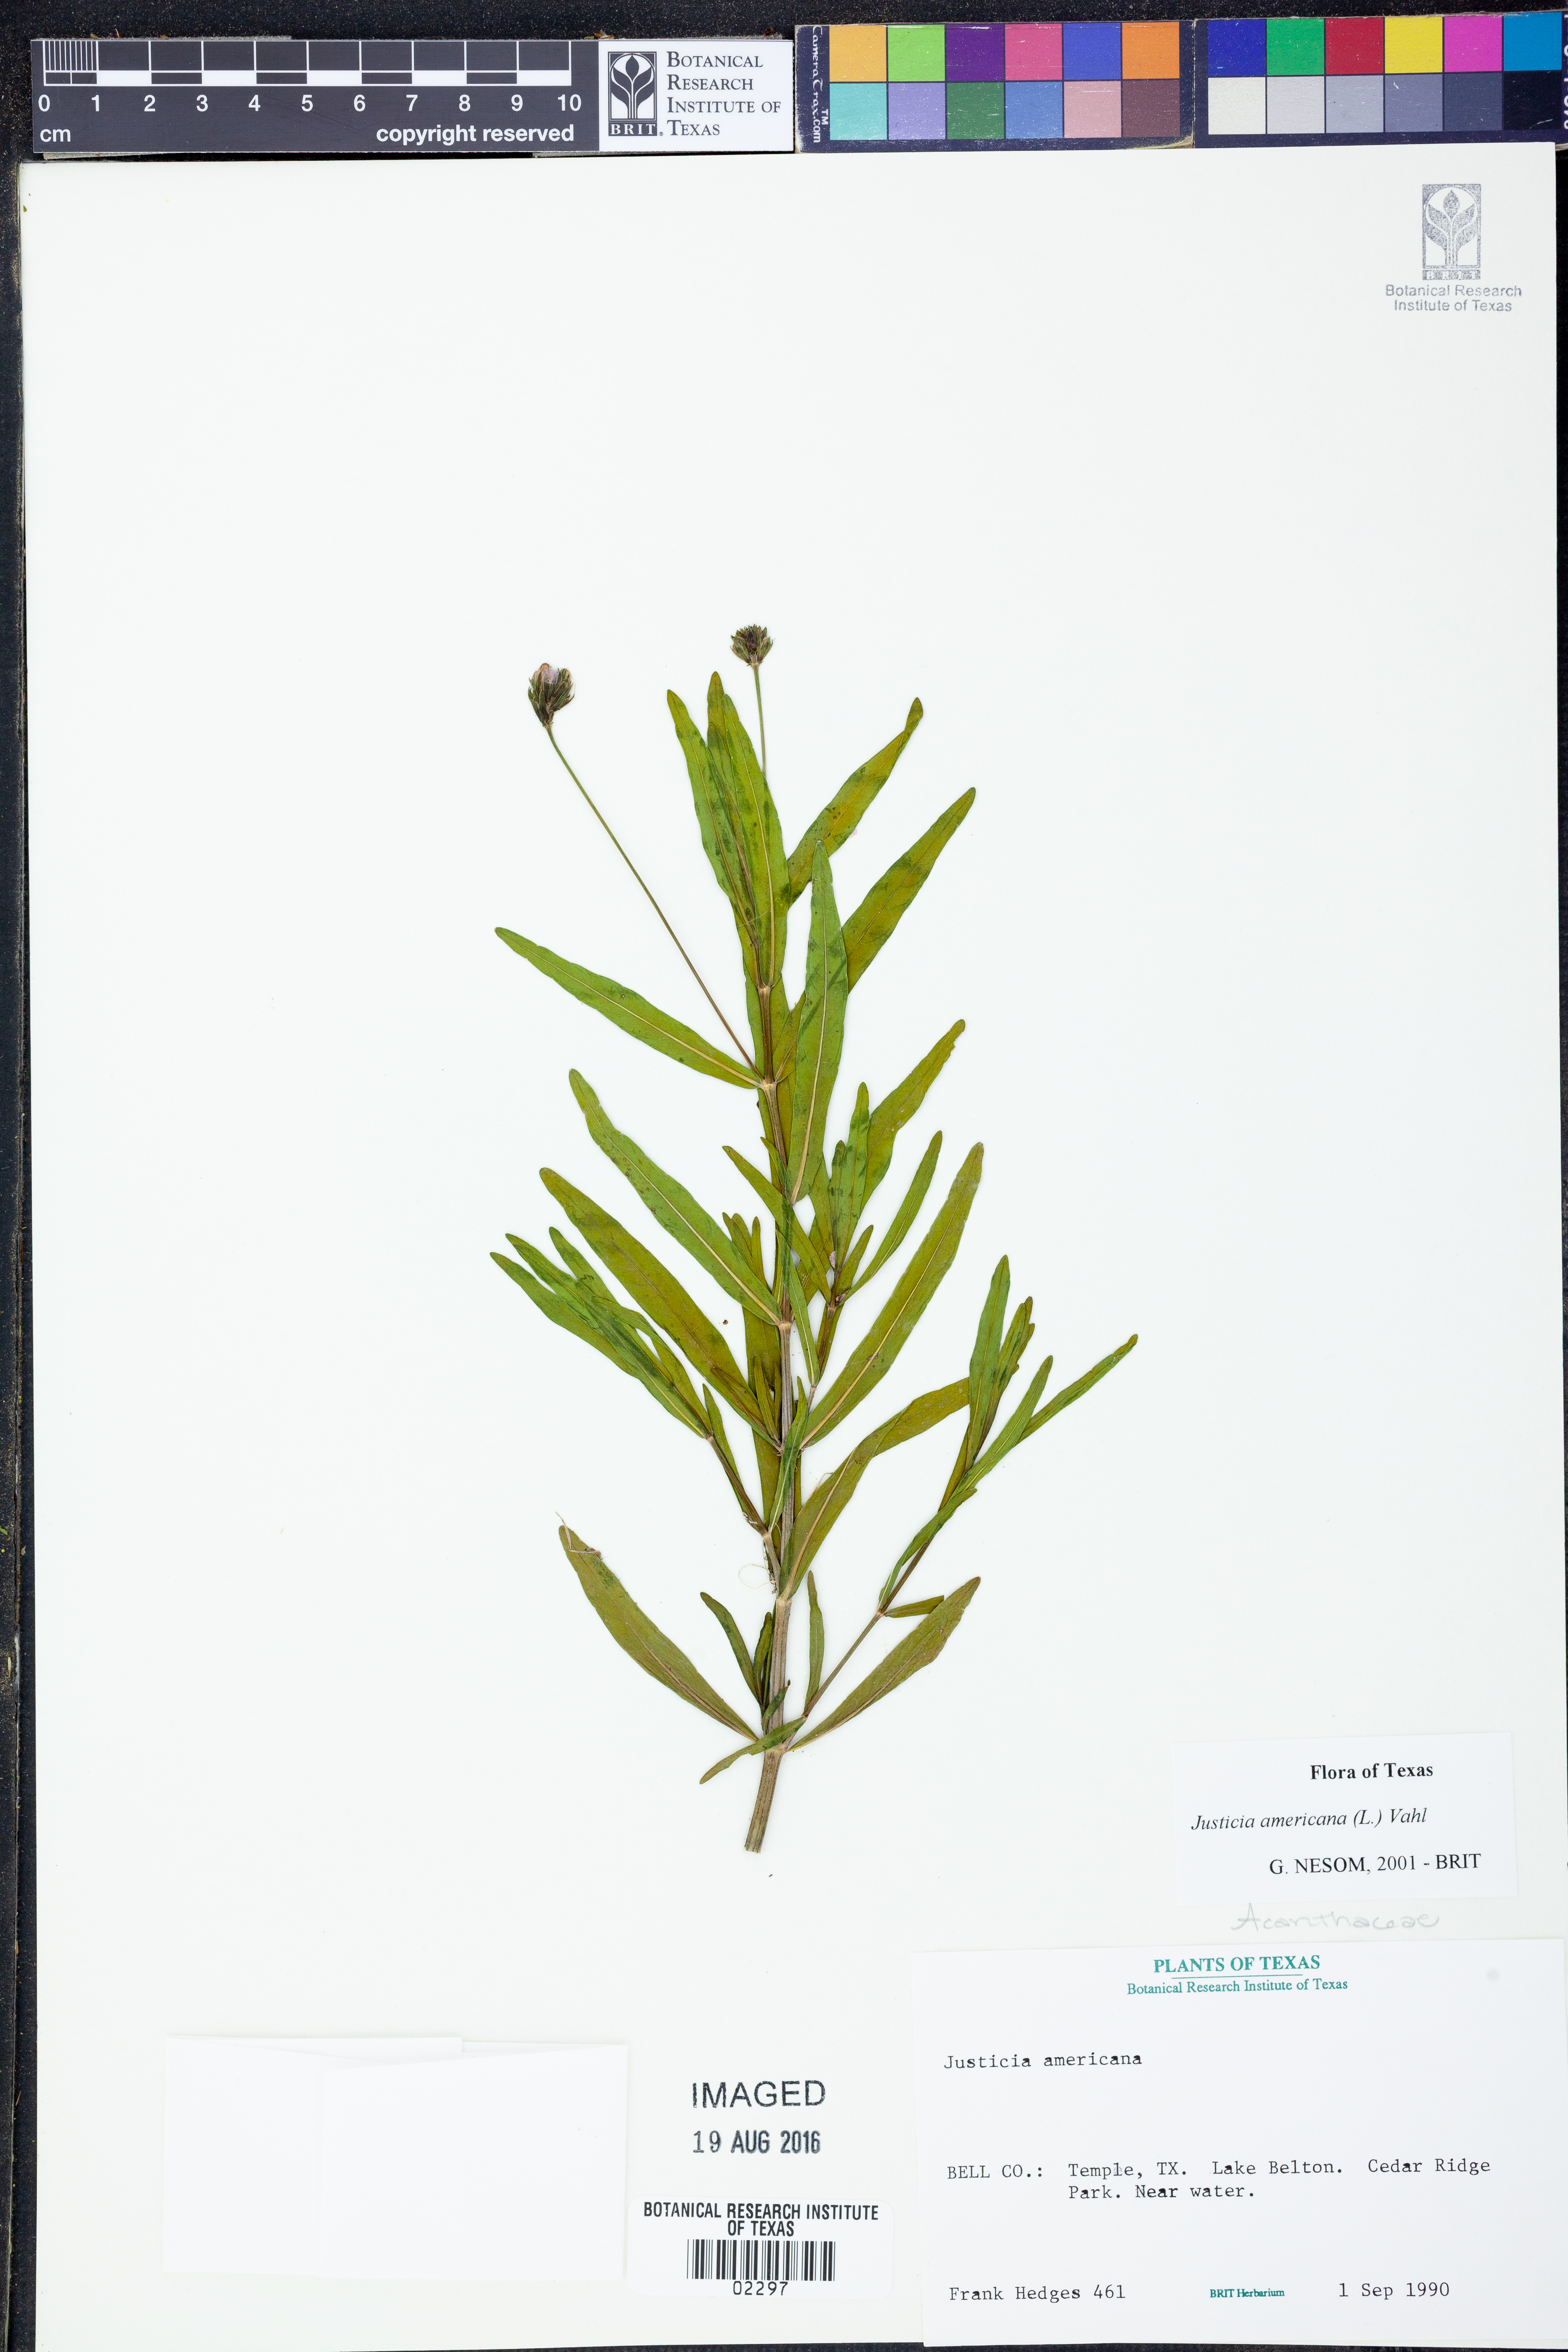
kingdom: Plantae
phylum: Tracheophyta
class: Magnoliopsida
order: Lamiales
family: Acanthaceae
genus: Dianthera
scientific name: Dianthera americana
